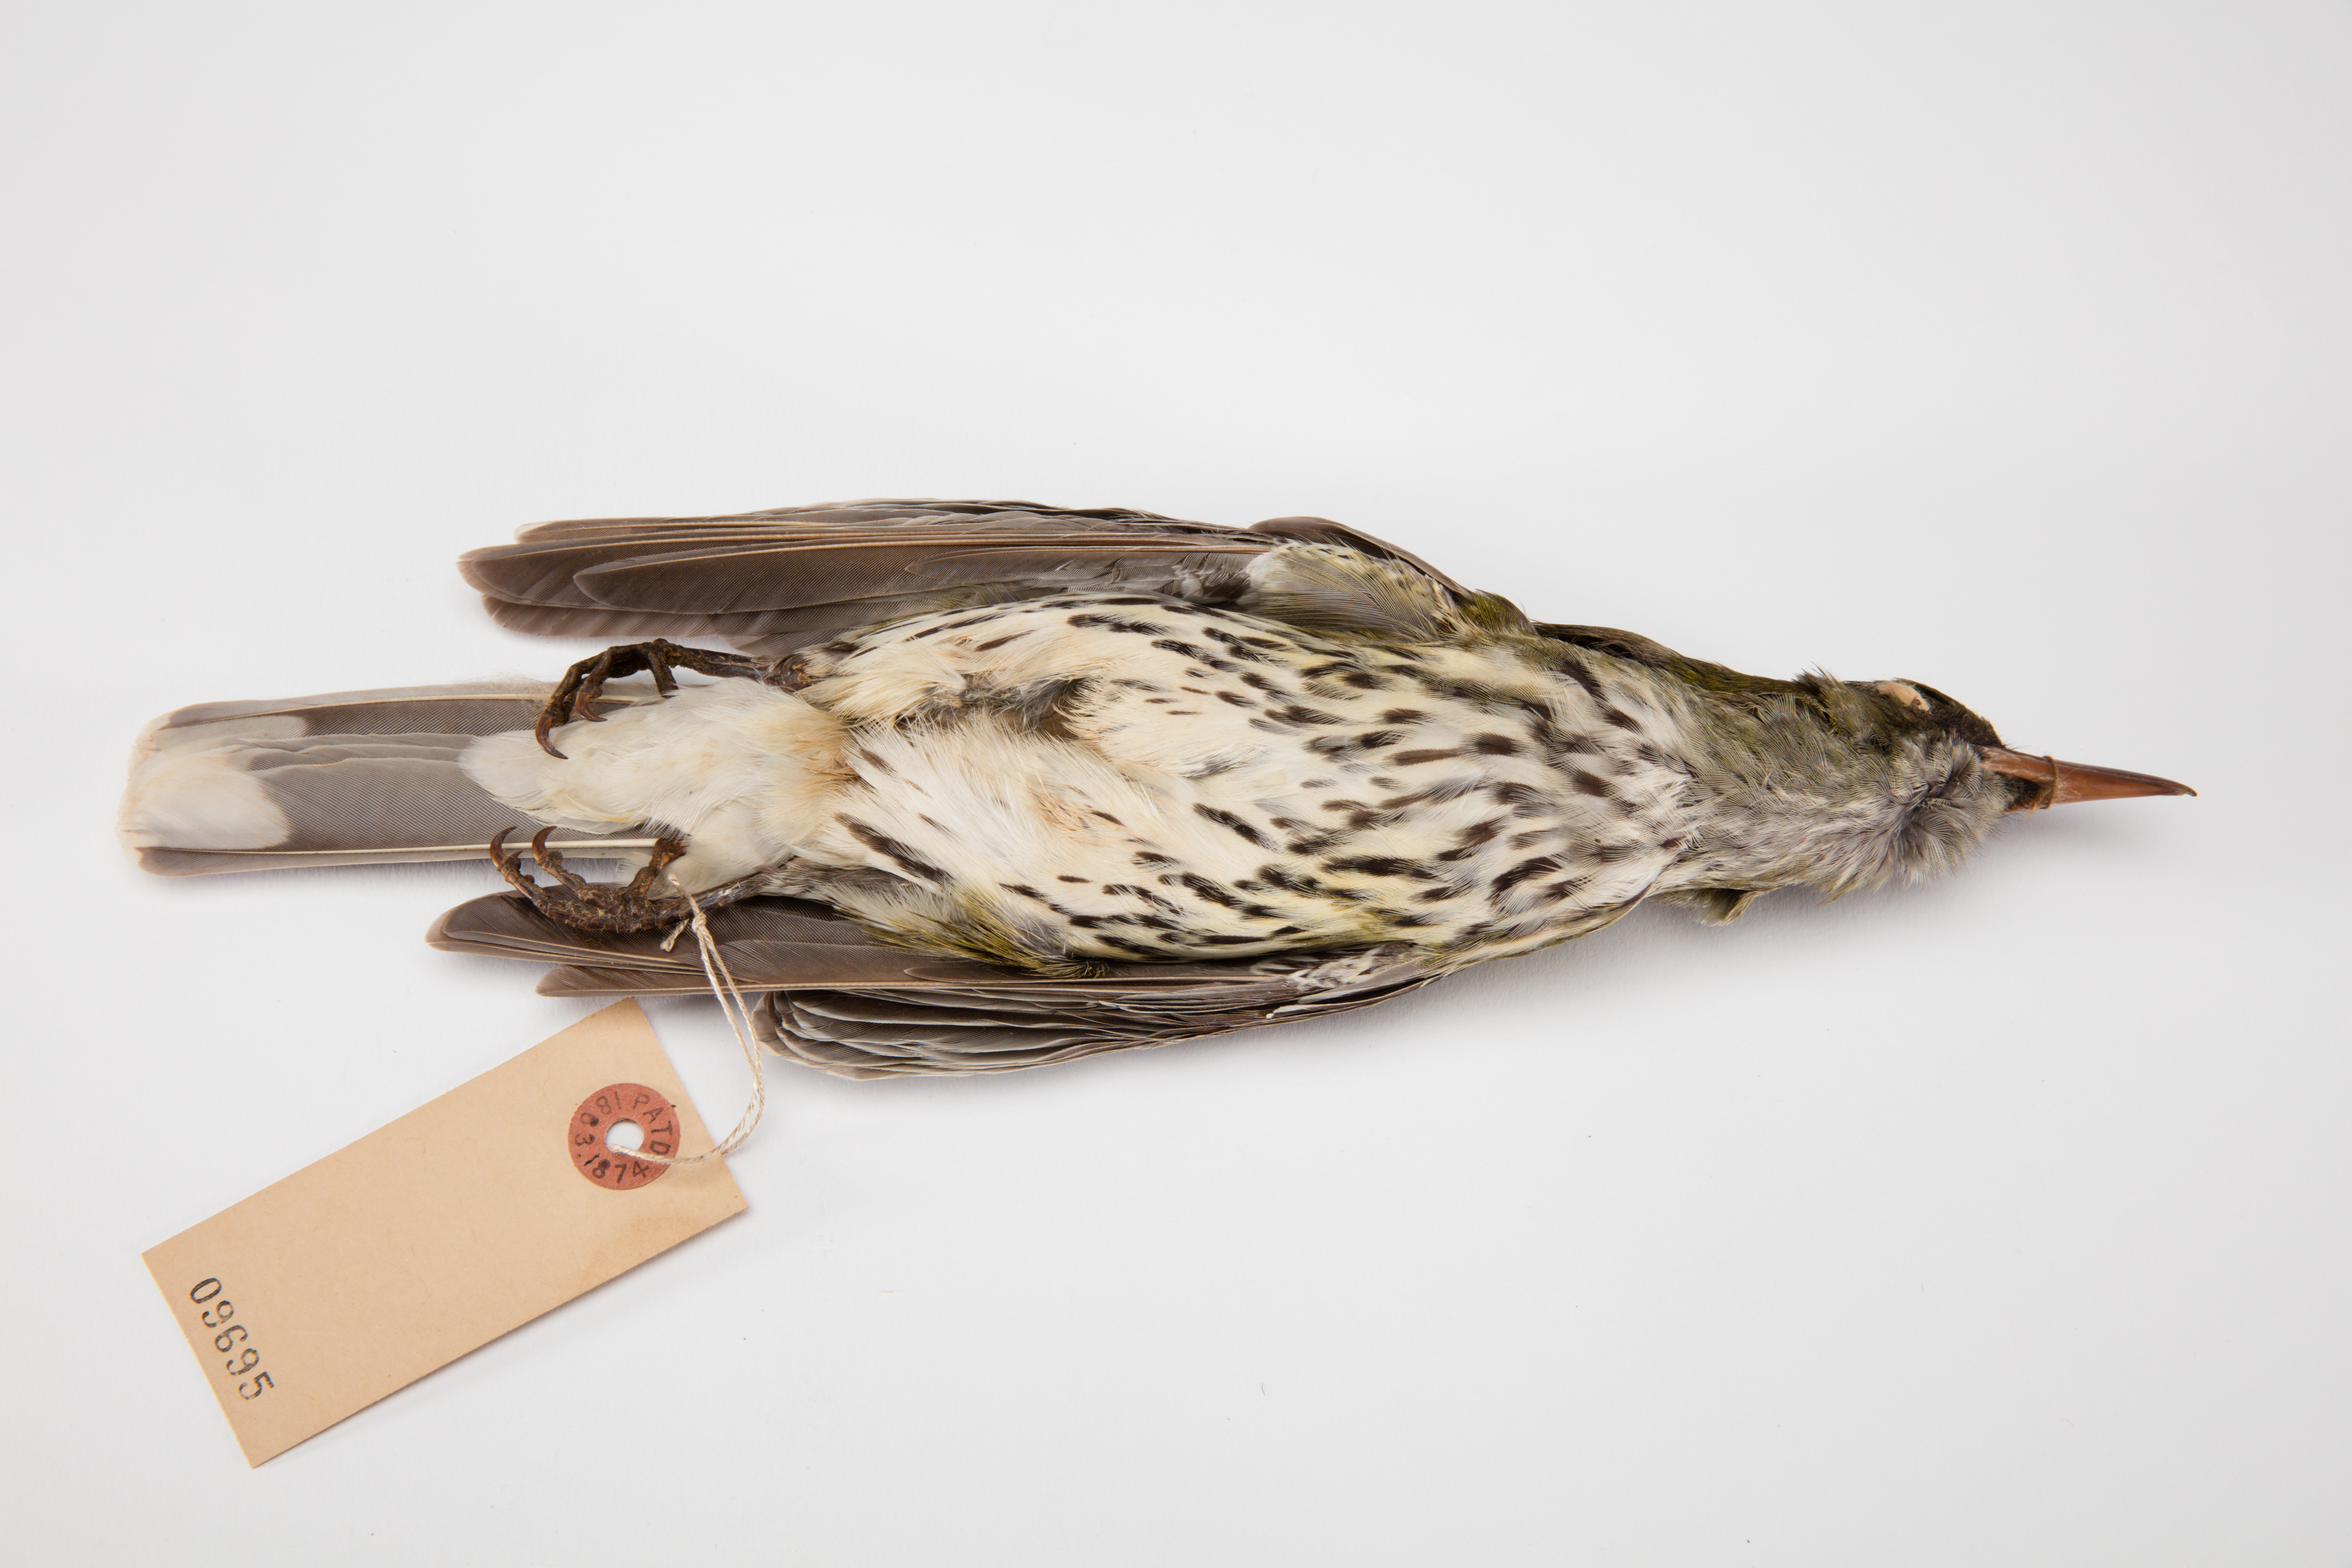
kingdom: Animalia
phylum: Chordata
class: Aves
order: Passeriformes
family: Oriolidae
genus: Oriolus
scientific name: Oriolus sagittatus
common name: Olive-backed oriole
